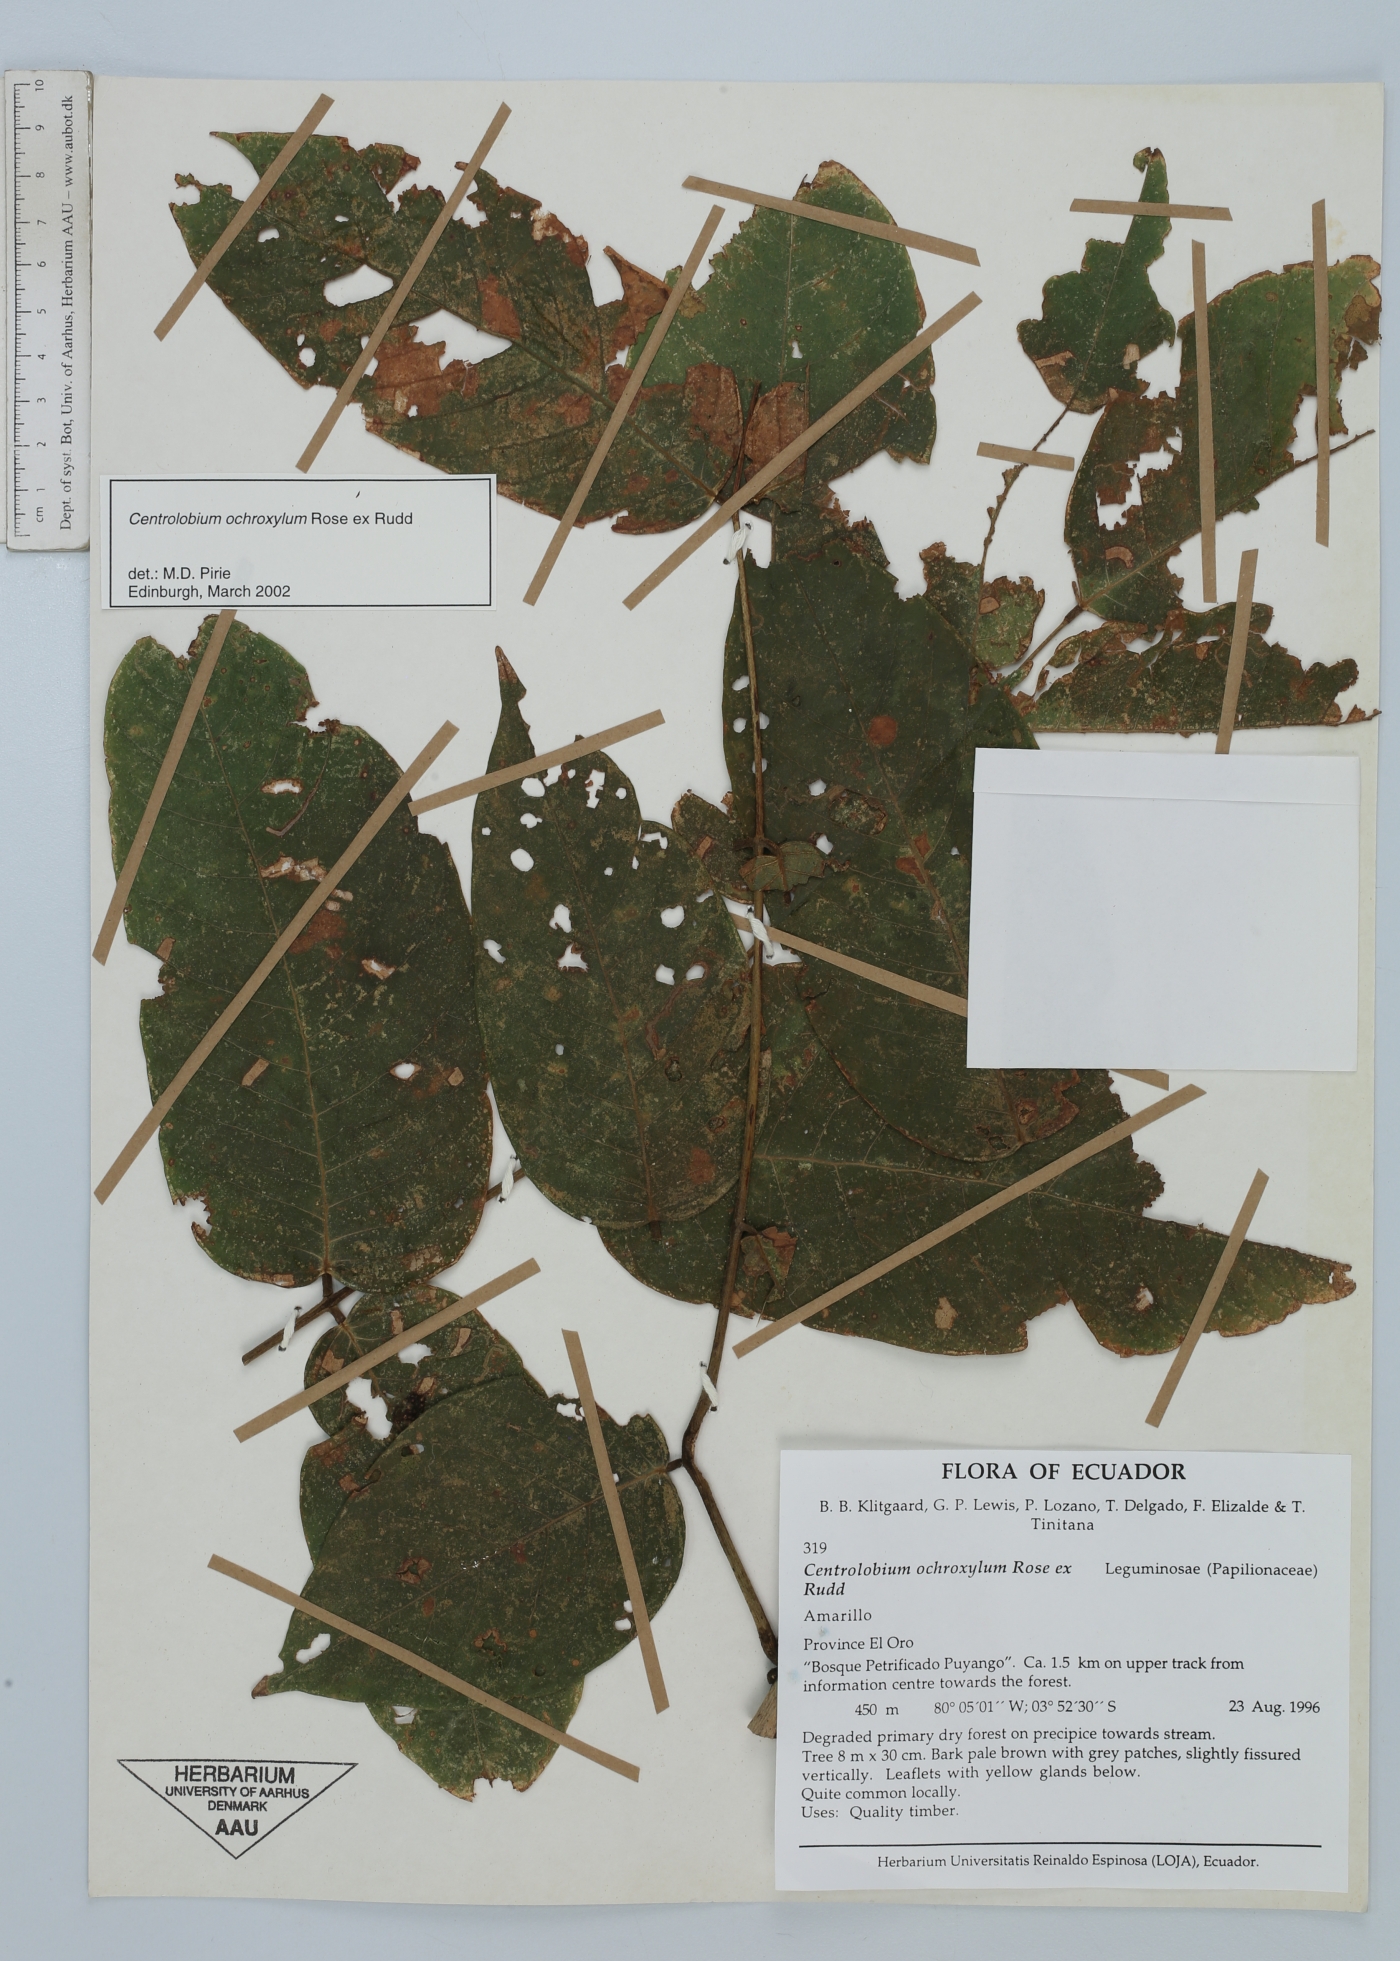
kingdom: Plantae
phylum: Tracheophyta
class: Magnoliopsida
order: Fabales
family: Fabaceae
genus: Centrolobium
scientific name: Centrolobium ochroxylum
